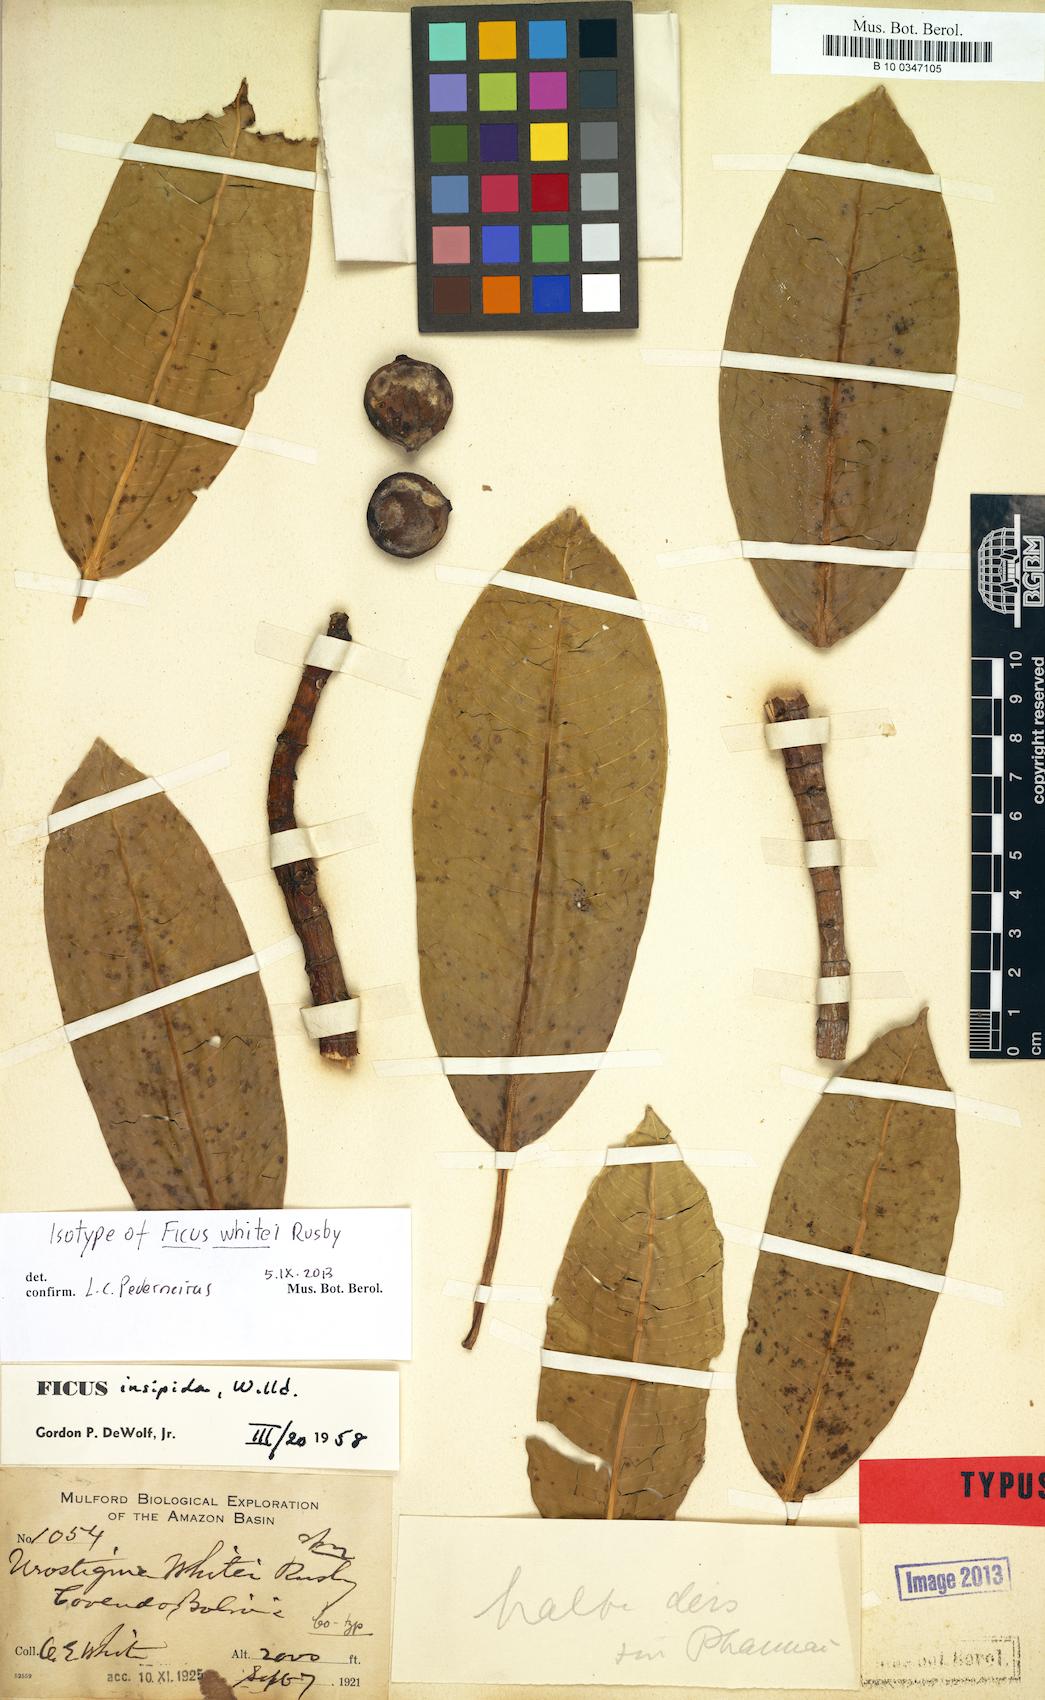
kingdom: Plantae
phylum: Tracheophyta
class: Magnoliopsida
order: Rosales
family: Moraceae
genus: Ficus
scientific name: Ficus insipida
